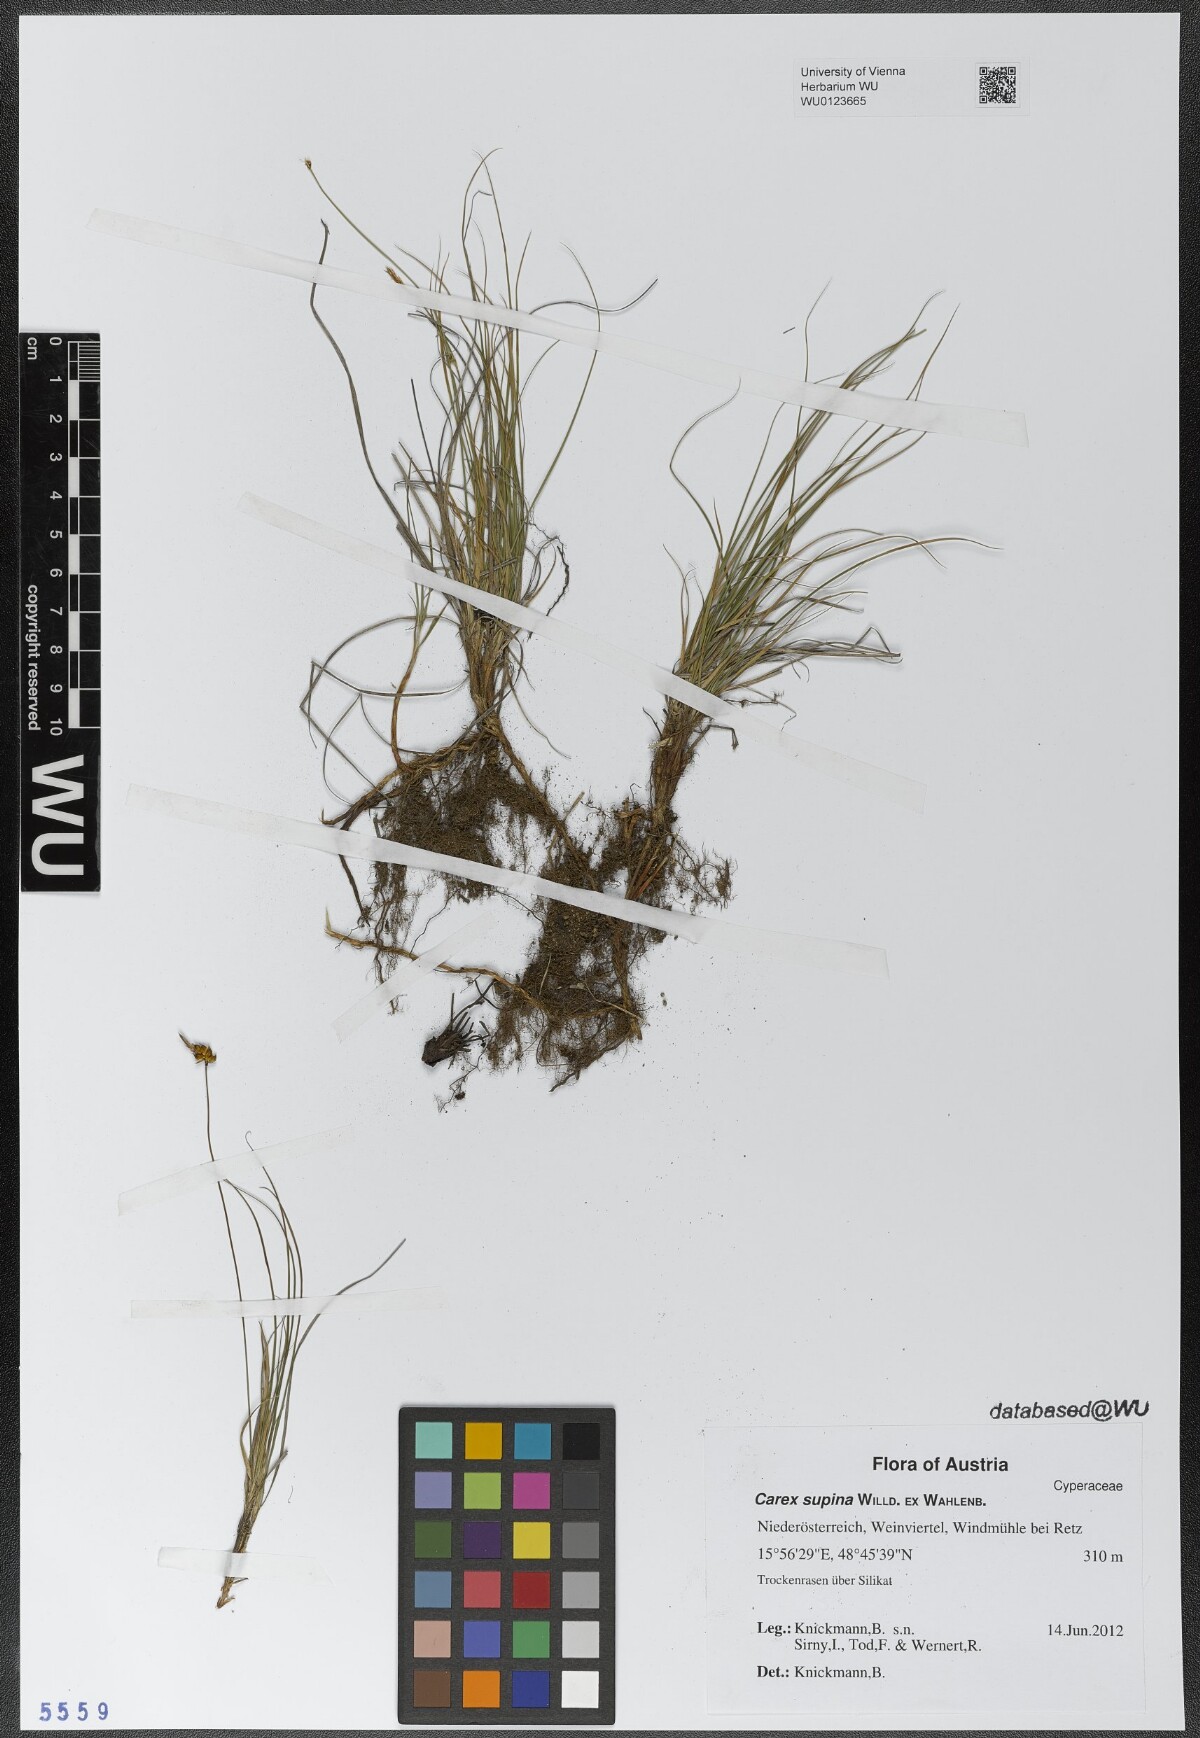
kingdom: Plantae
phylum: Tracheophyta
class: Liliopsida
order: Poales
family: Cyperaceae
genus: Carex
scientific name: Carex supina
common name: Lying-back sedge
